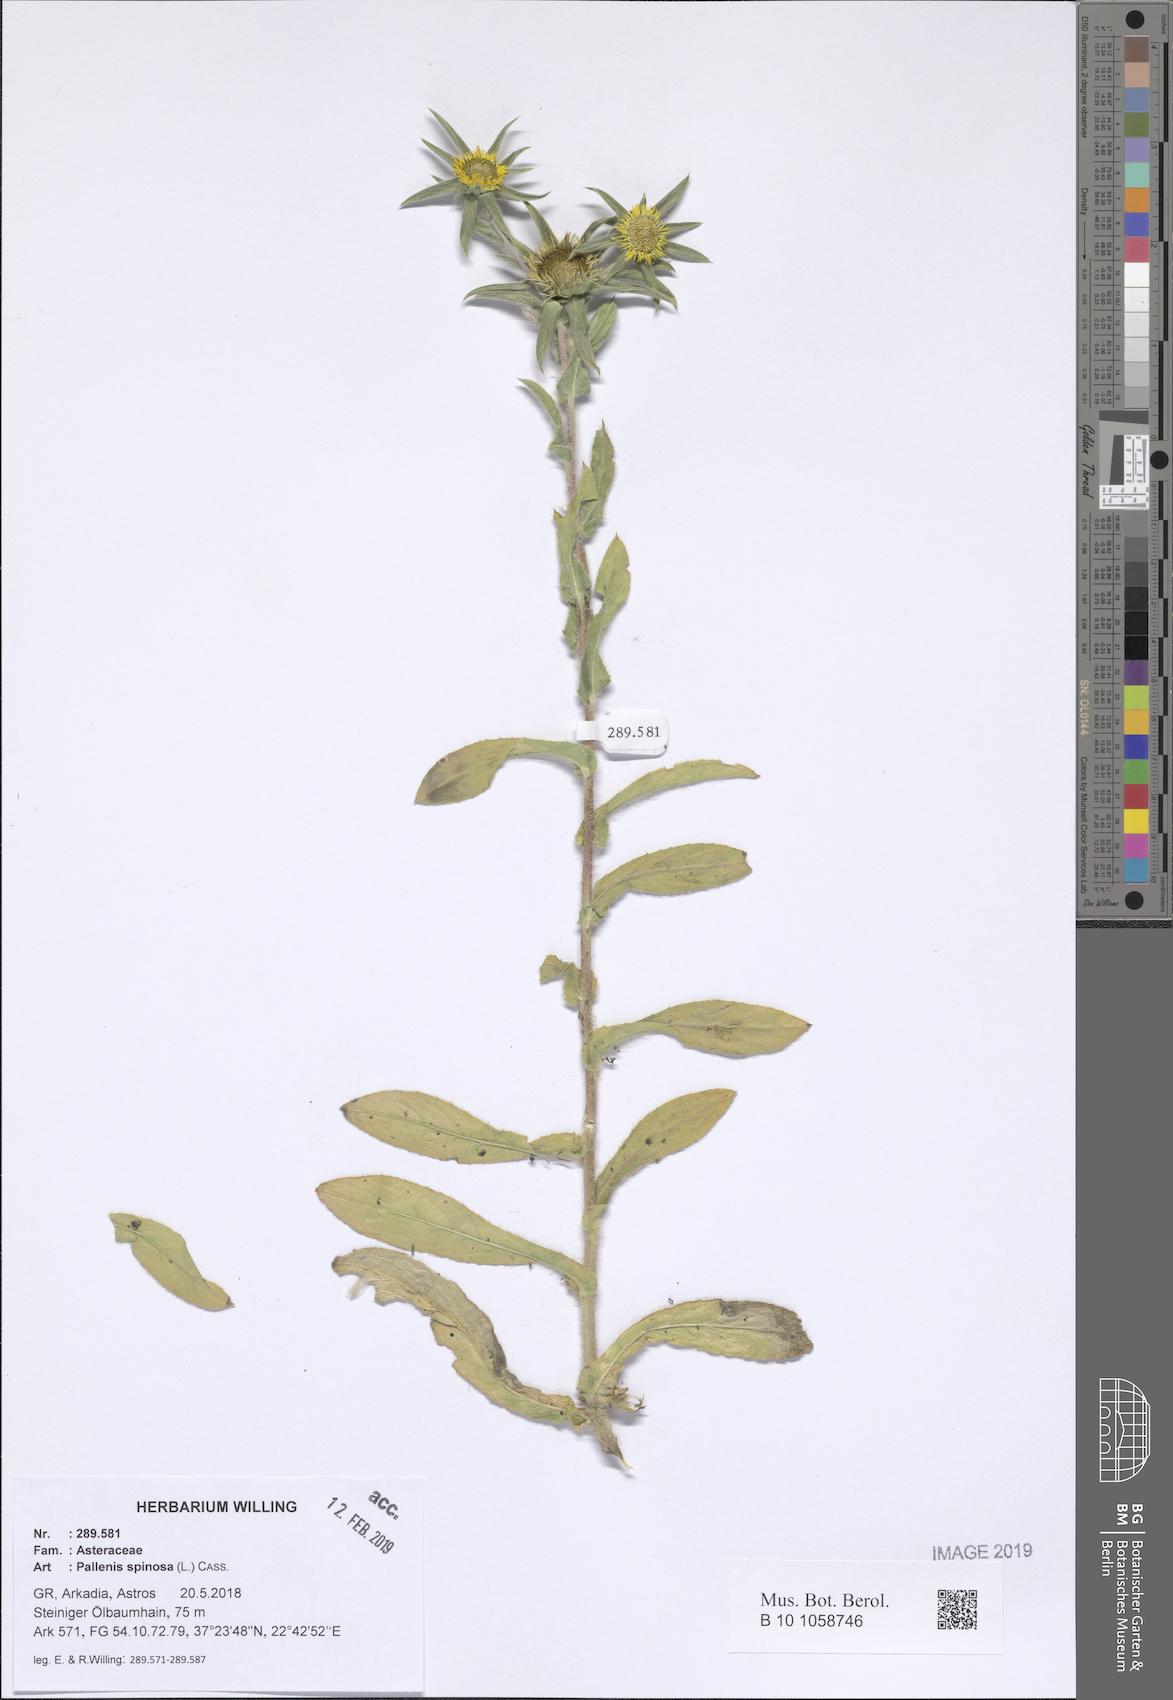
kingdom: Plantae
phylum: Tracheophyta
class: Magnoliopsida
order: Asterales
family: Asteraceae
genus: Pallenis
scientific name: Pallenis spinosa
